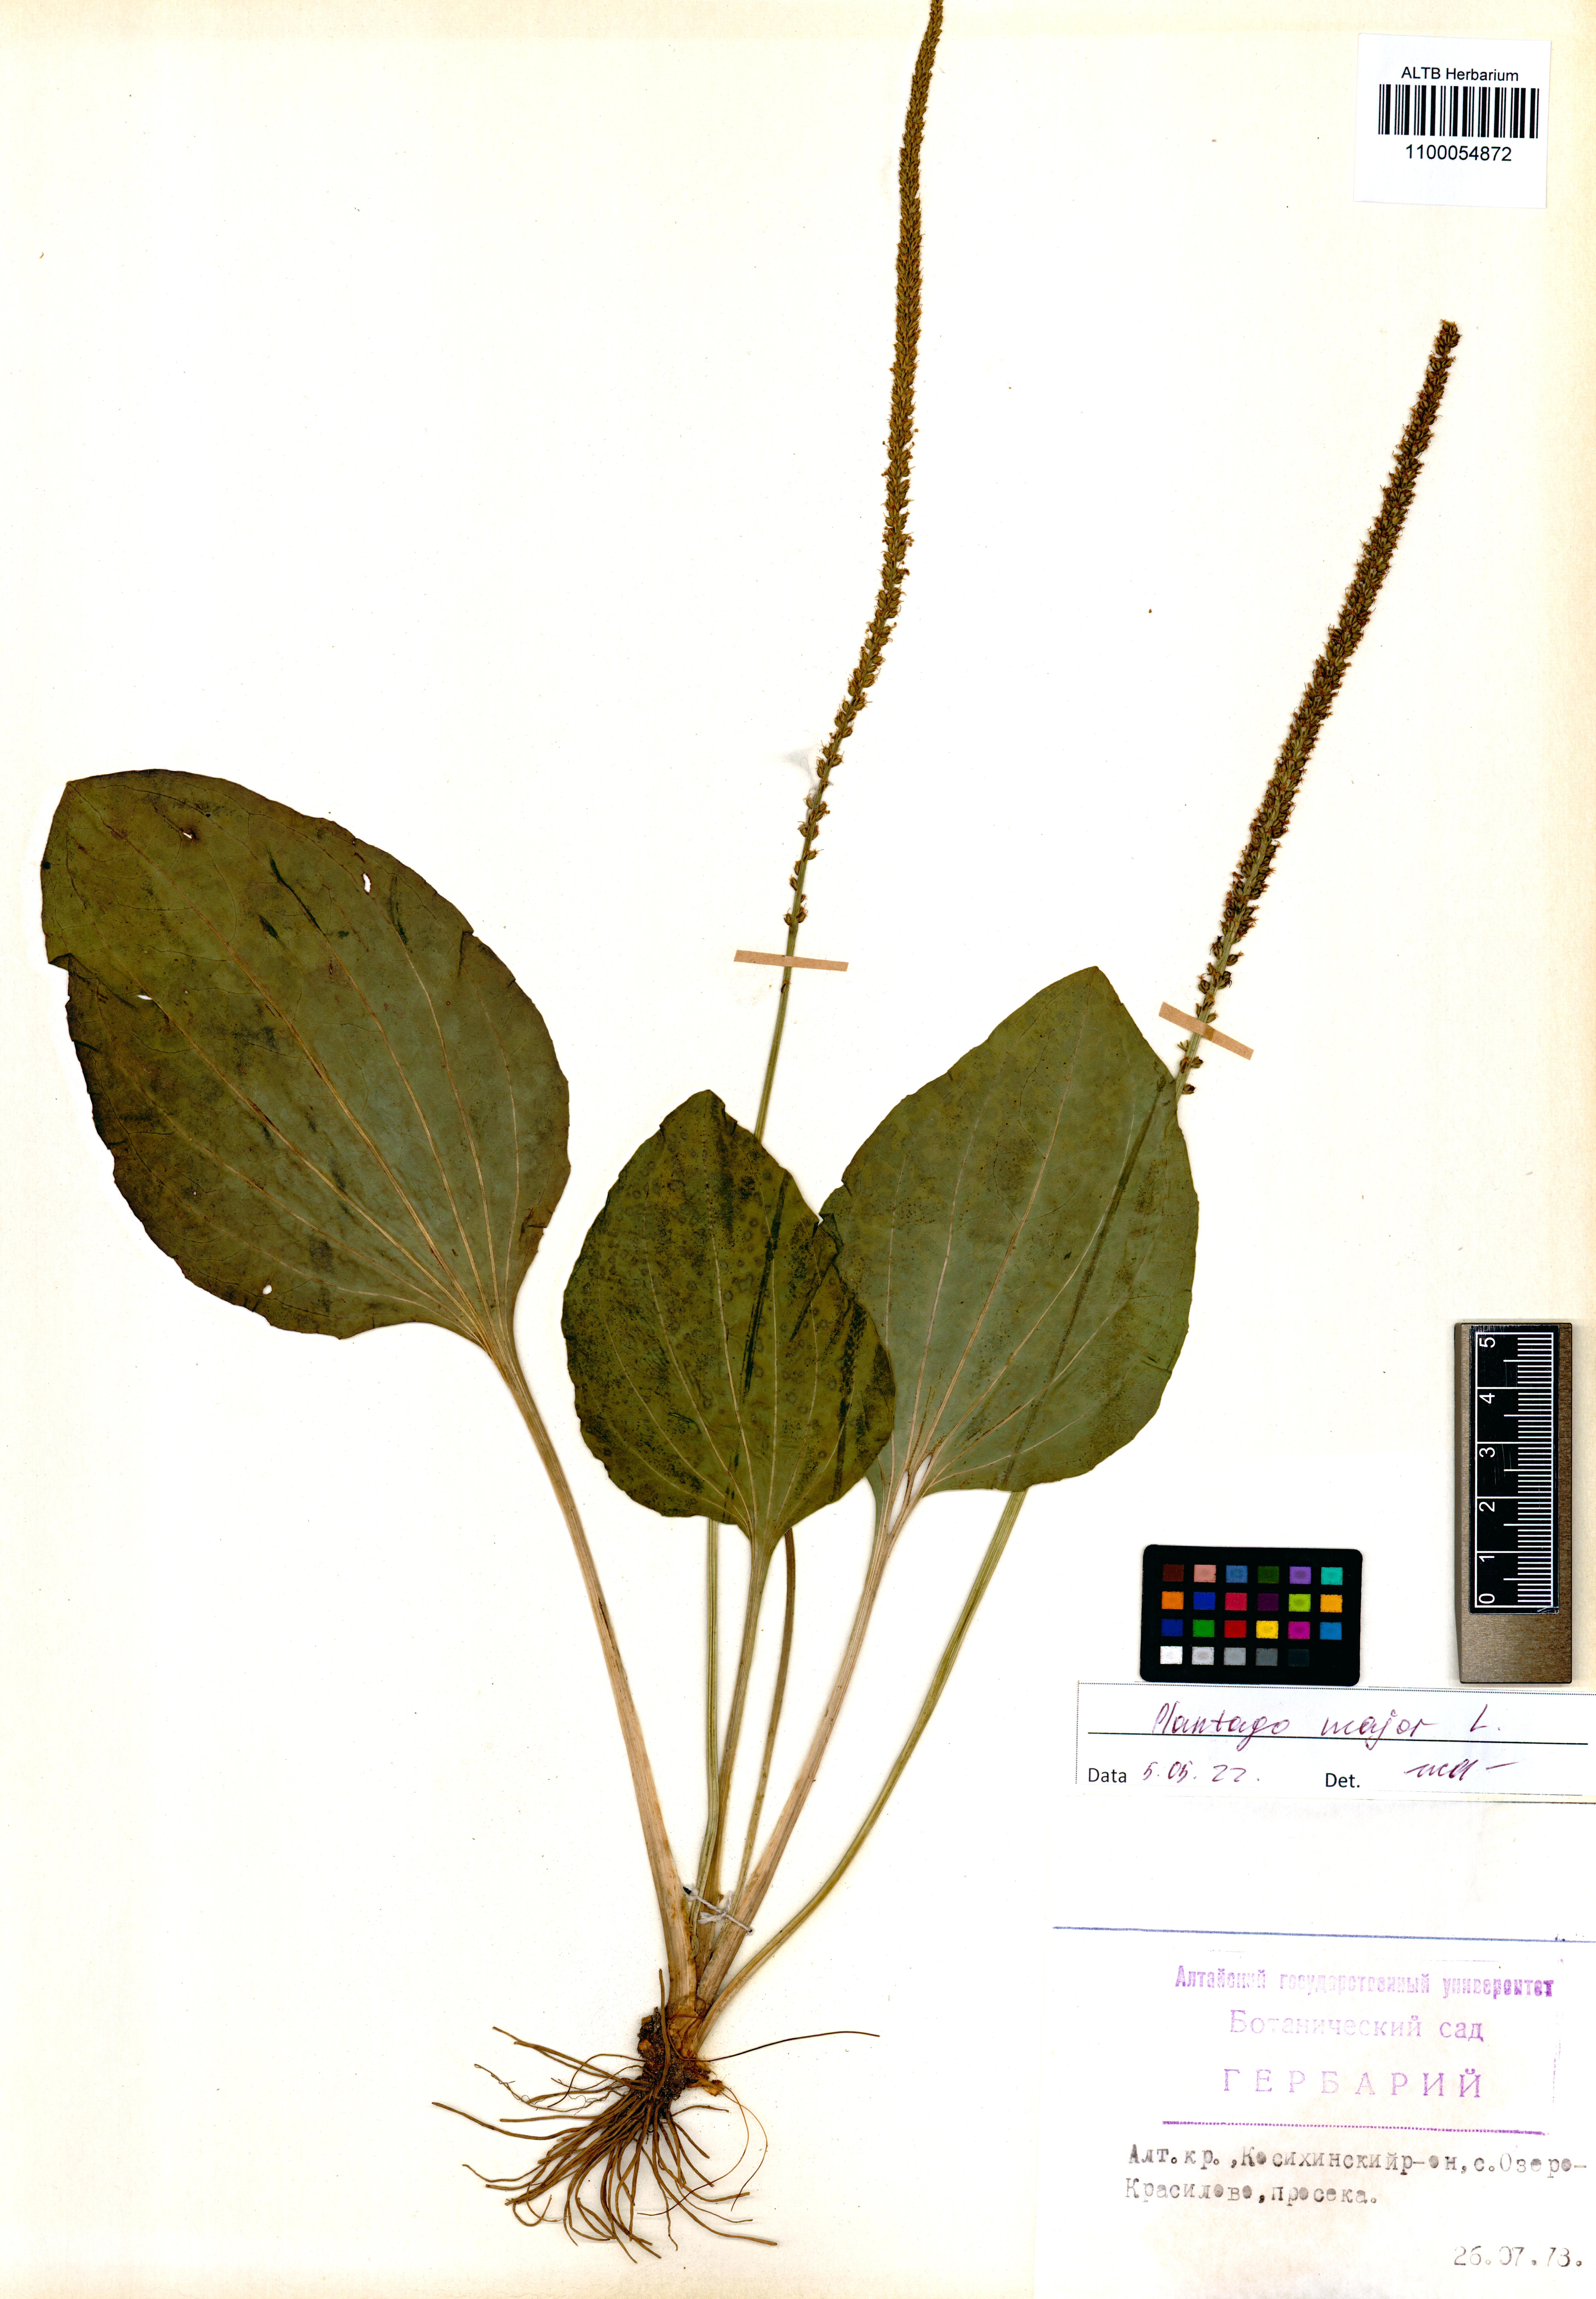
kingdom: Plantae
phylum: Tracheophyta
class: Magnoliopsida
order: Lamiales
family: Plantaginaceae
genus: Plantago
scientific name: Plantago major
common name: Common plantain
